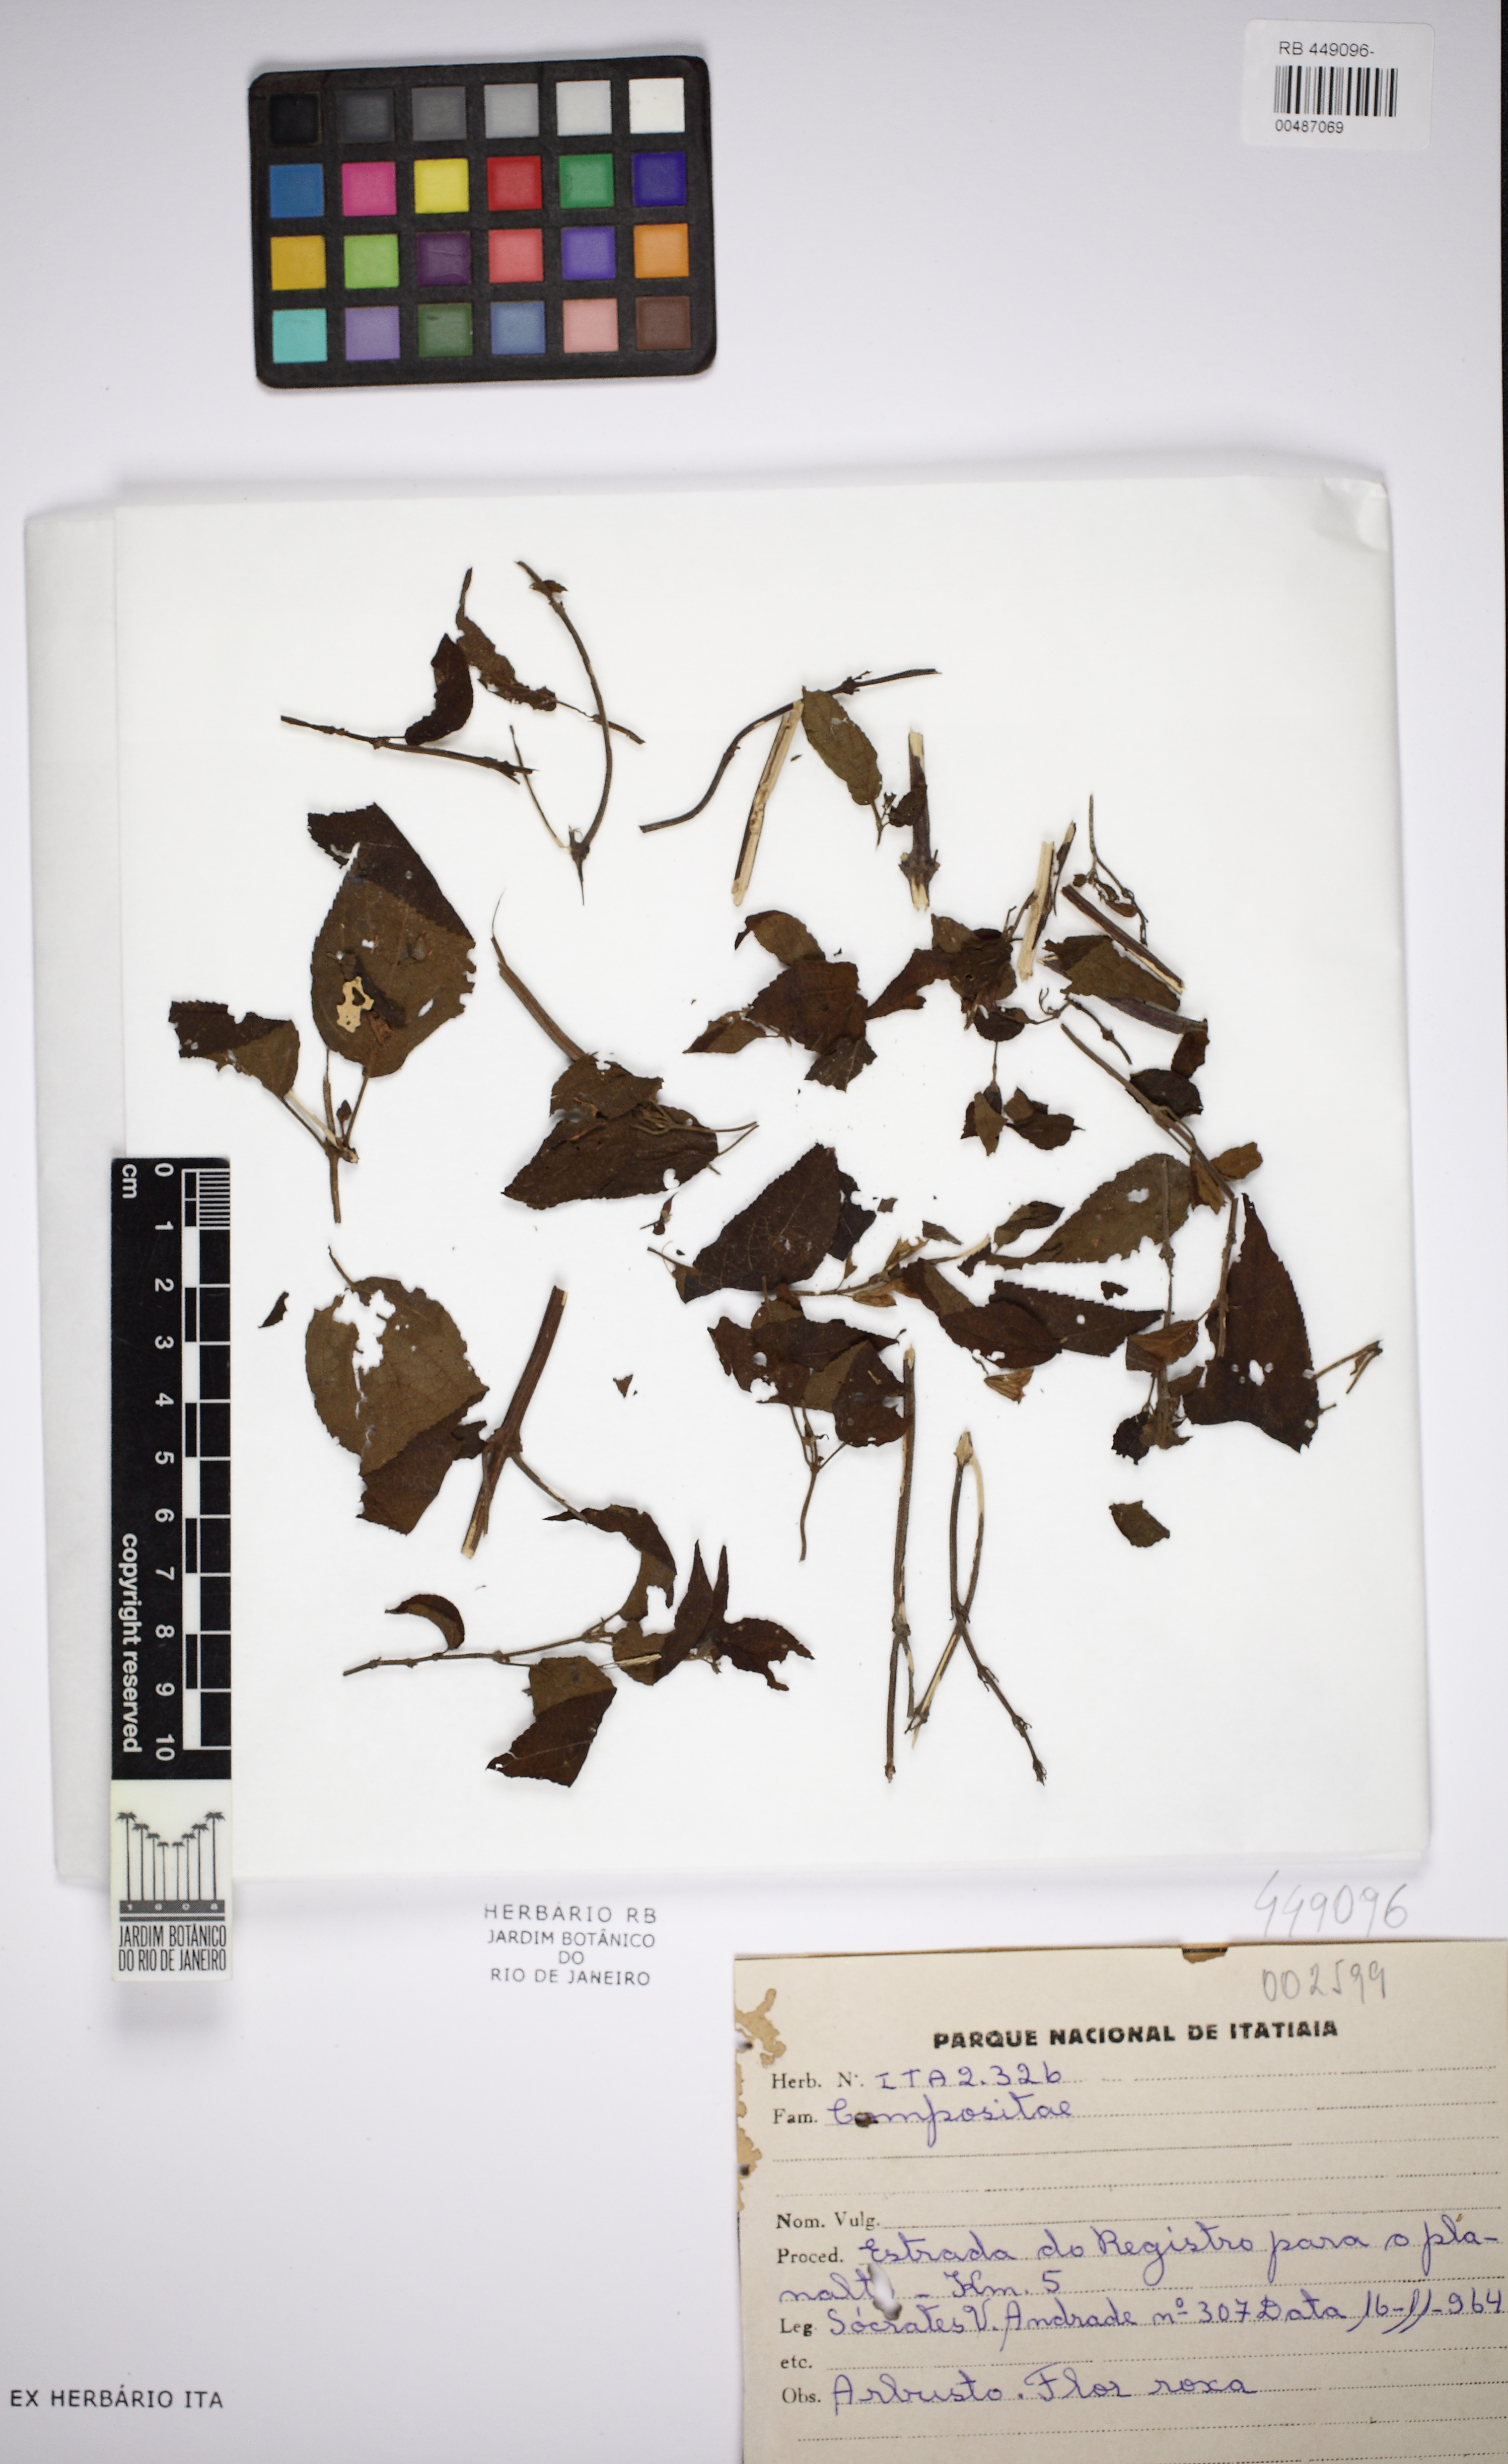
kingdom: Plantae
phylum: Tracheophyta
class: Magnoliopsida
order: Asterales
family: Asteraceae
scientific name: Asteraceae
